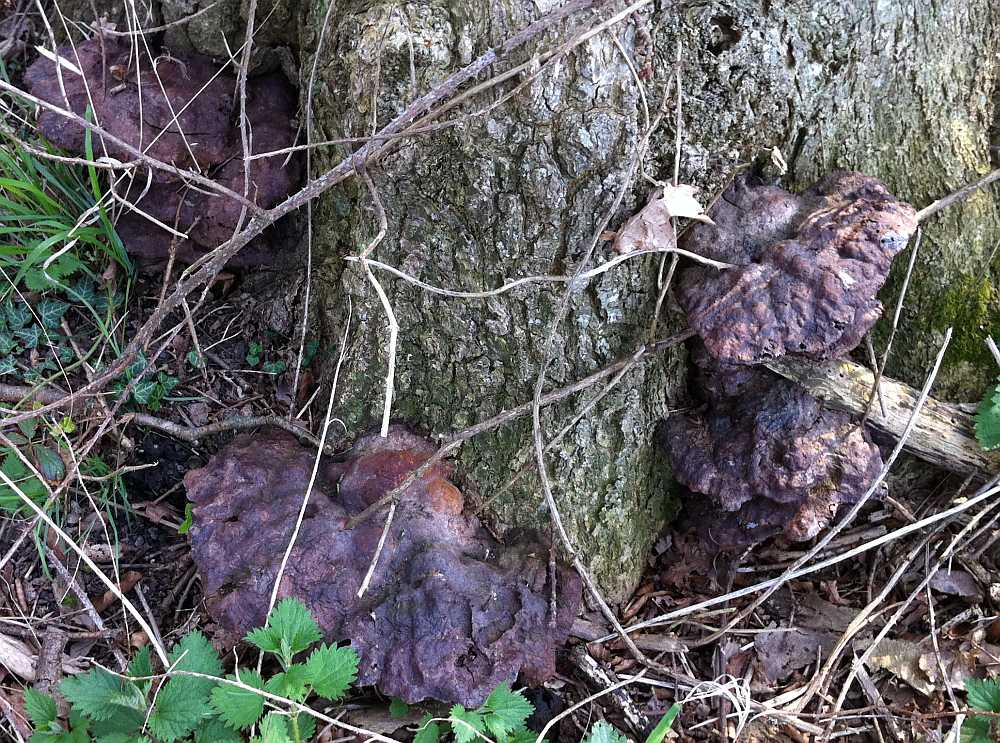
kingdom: Fungi
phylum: Basidiomycota
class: Agaricomycetes
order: Hymenochaetales
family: Hymenochaetaceae
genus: Pseudoinonotus
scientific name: Pseudoinonotus dryadeus
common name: ege-spejlporesvamp
